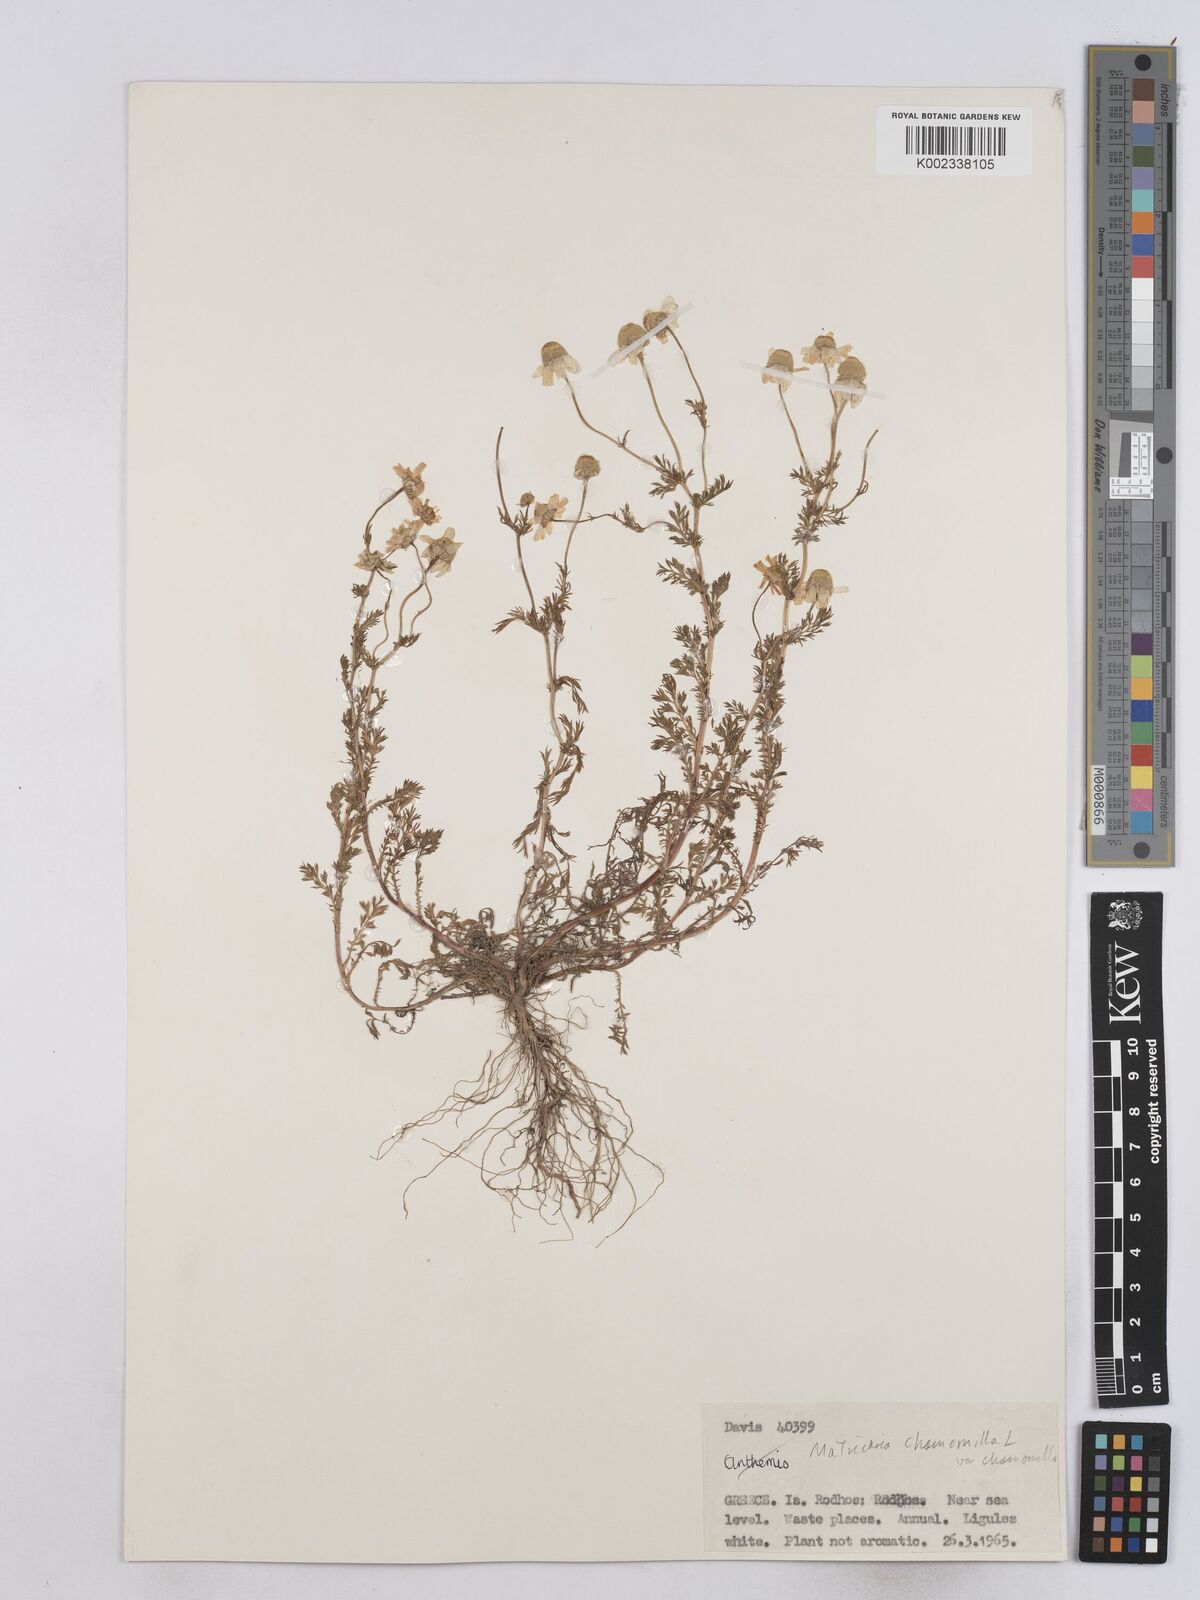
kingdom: Plantae
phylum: Tracheophyta
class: Magnoliopsida
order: Asterales
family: Asteraceae
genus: Matricaria
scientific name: Matricaria chamomilla
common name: Scented mayweed
